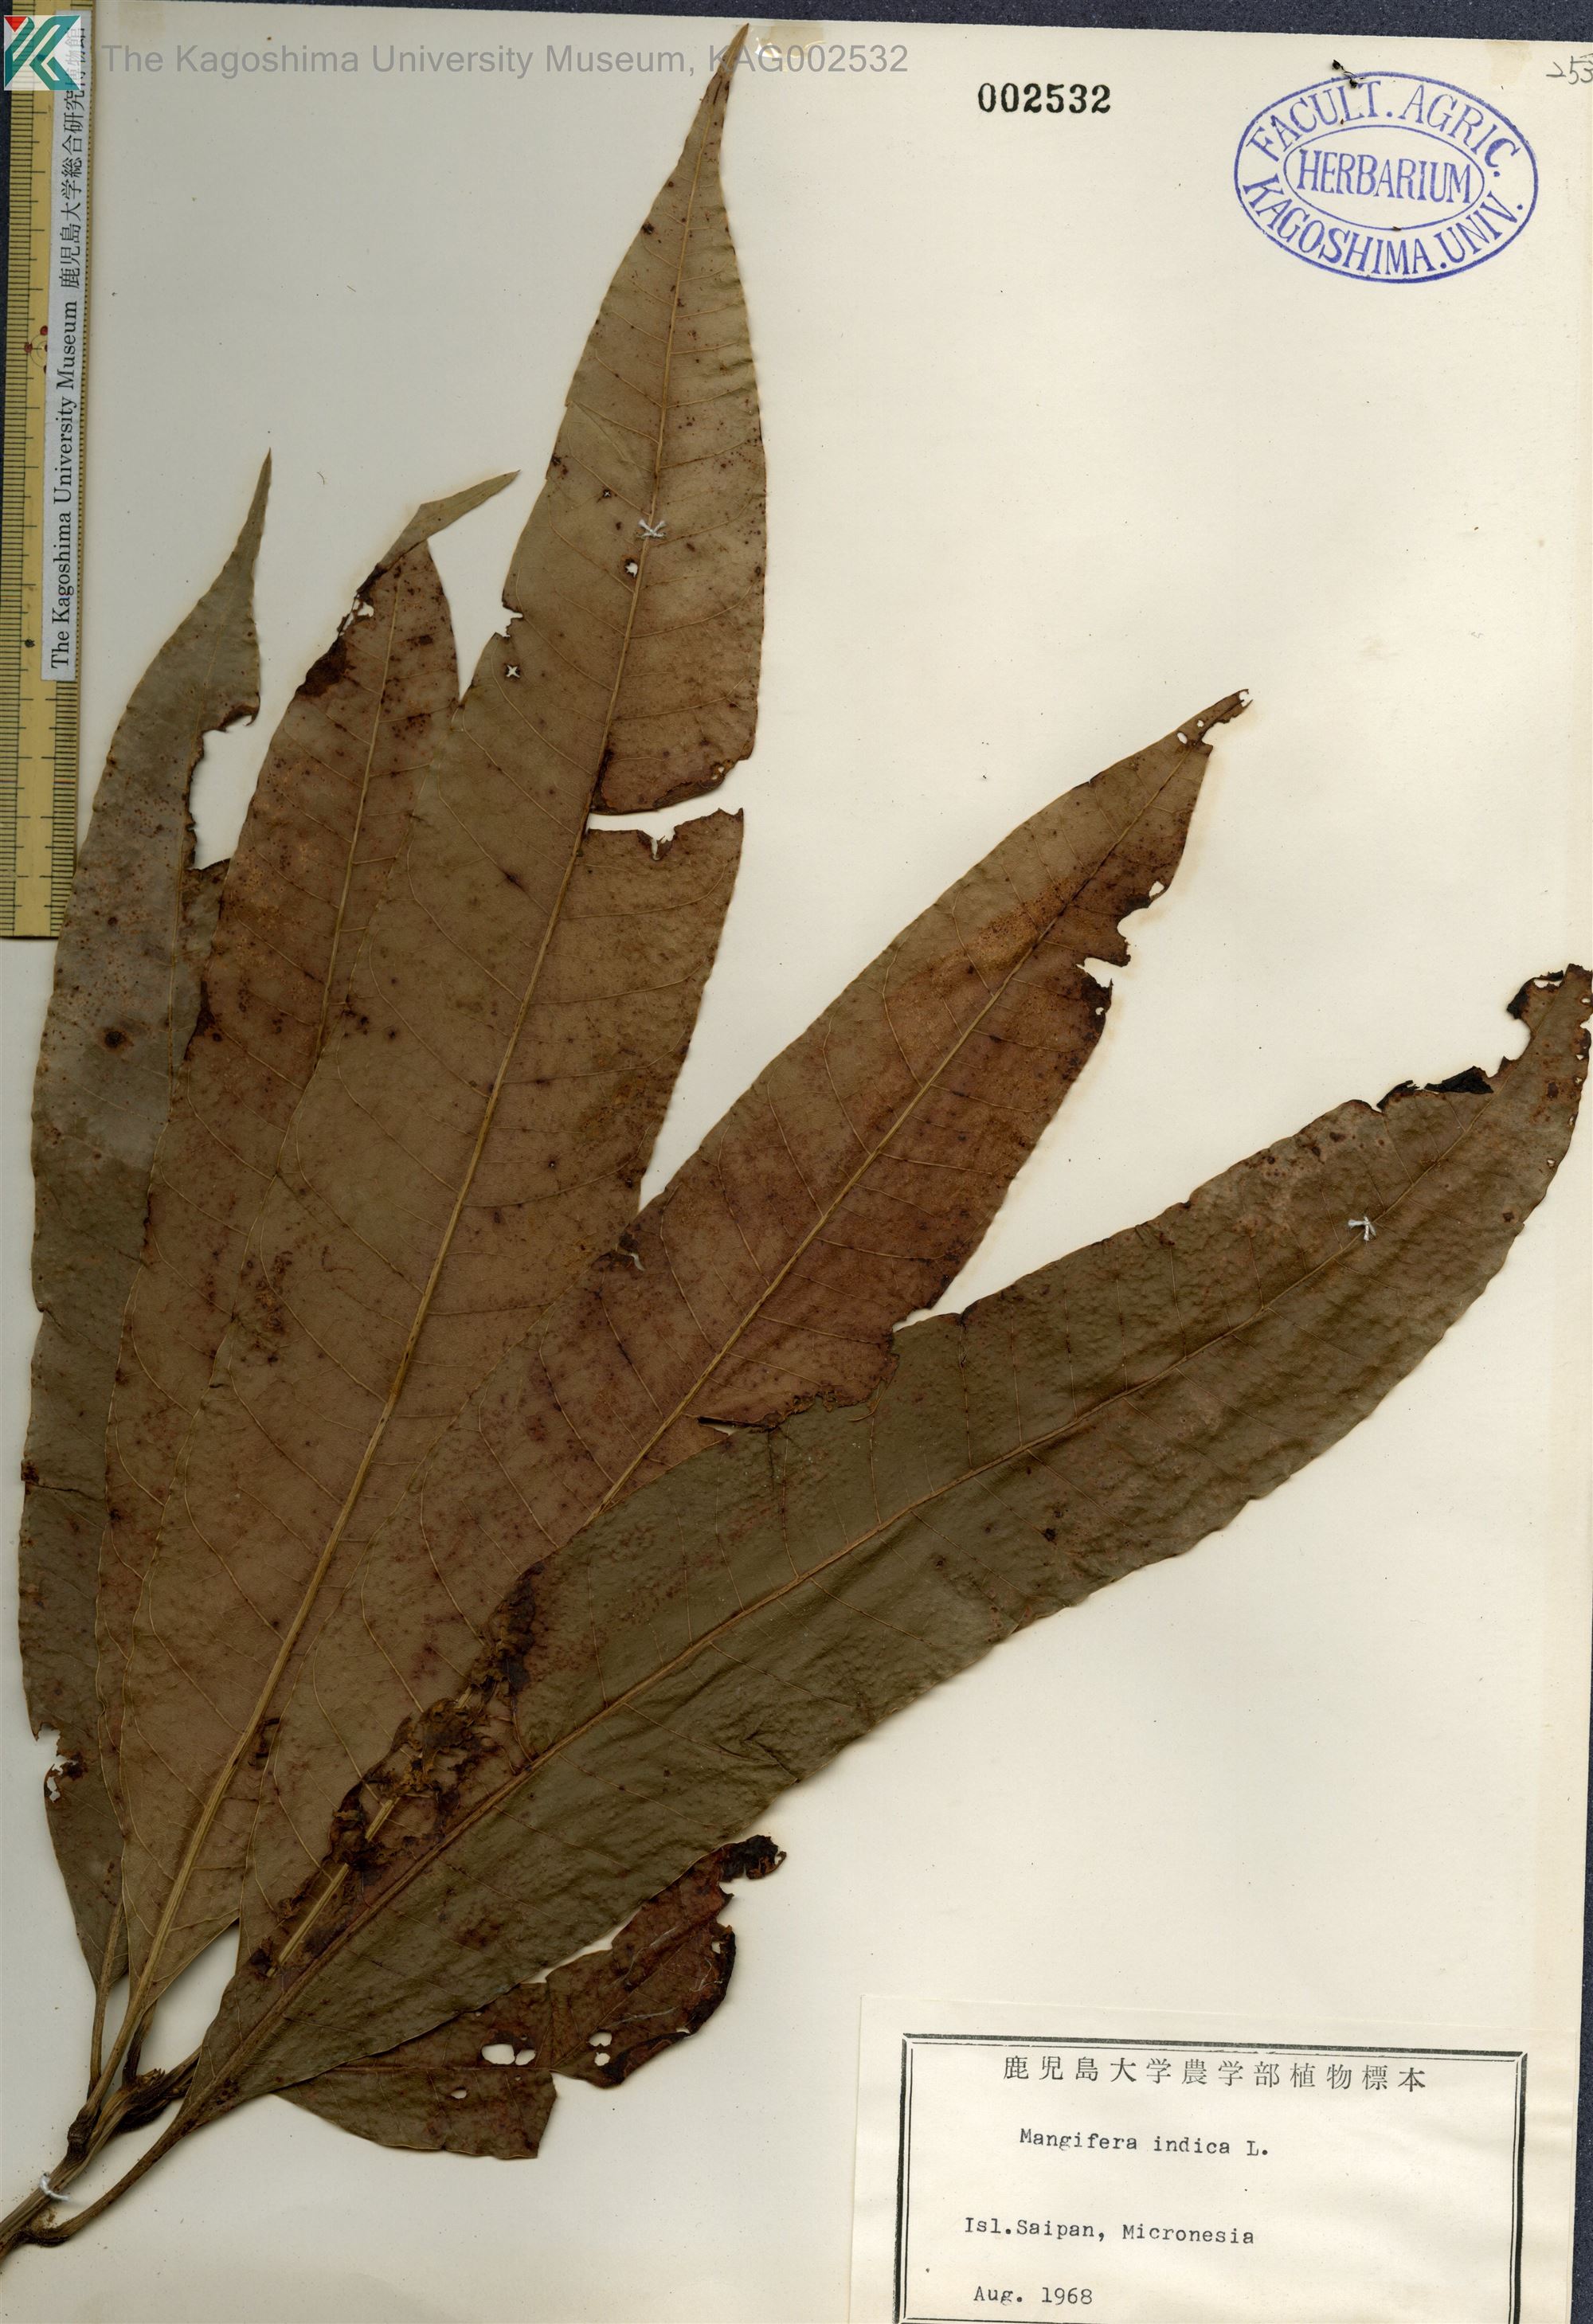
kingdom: Plantae
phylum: Tracheophyta
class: Magnoliopsida
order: Sapindales
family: Anacardiaceae
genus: Mangifera
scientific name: Mangifera indica
